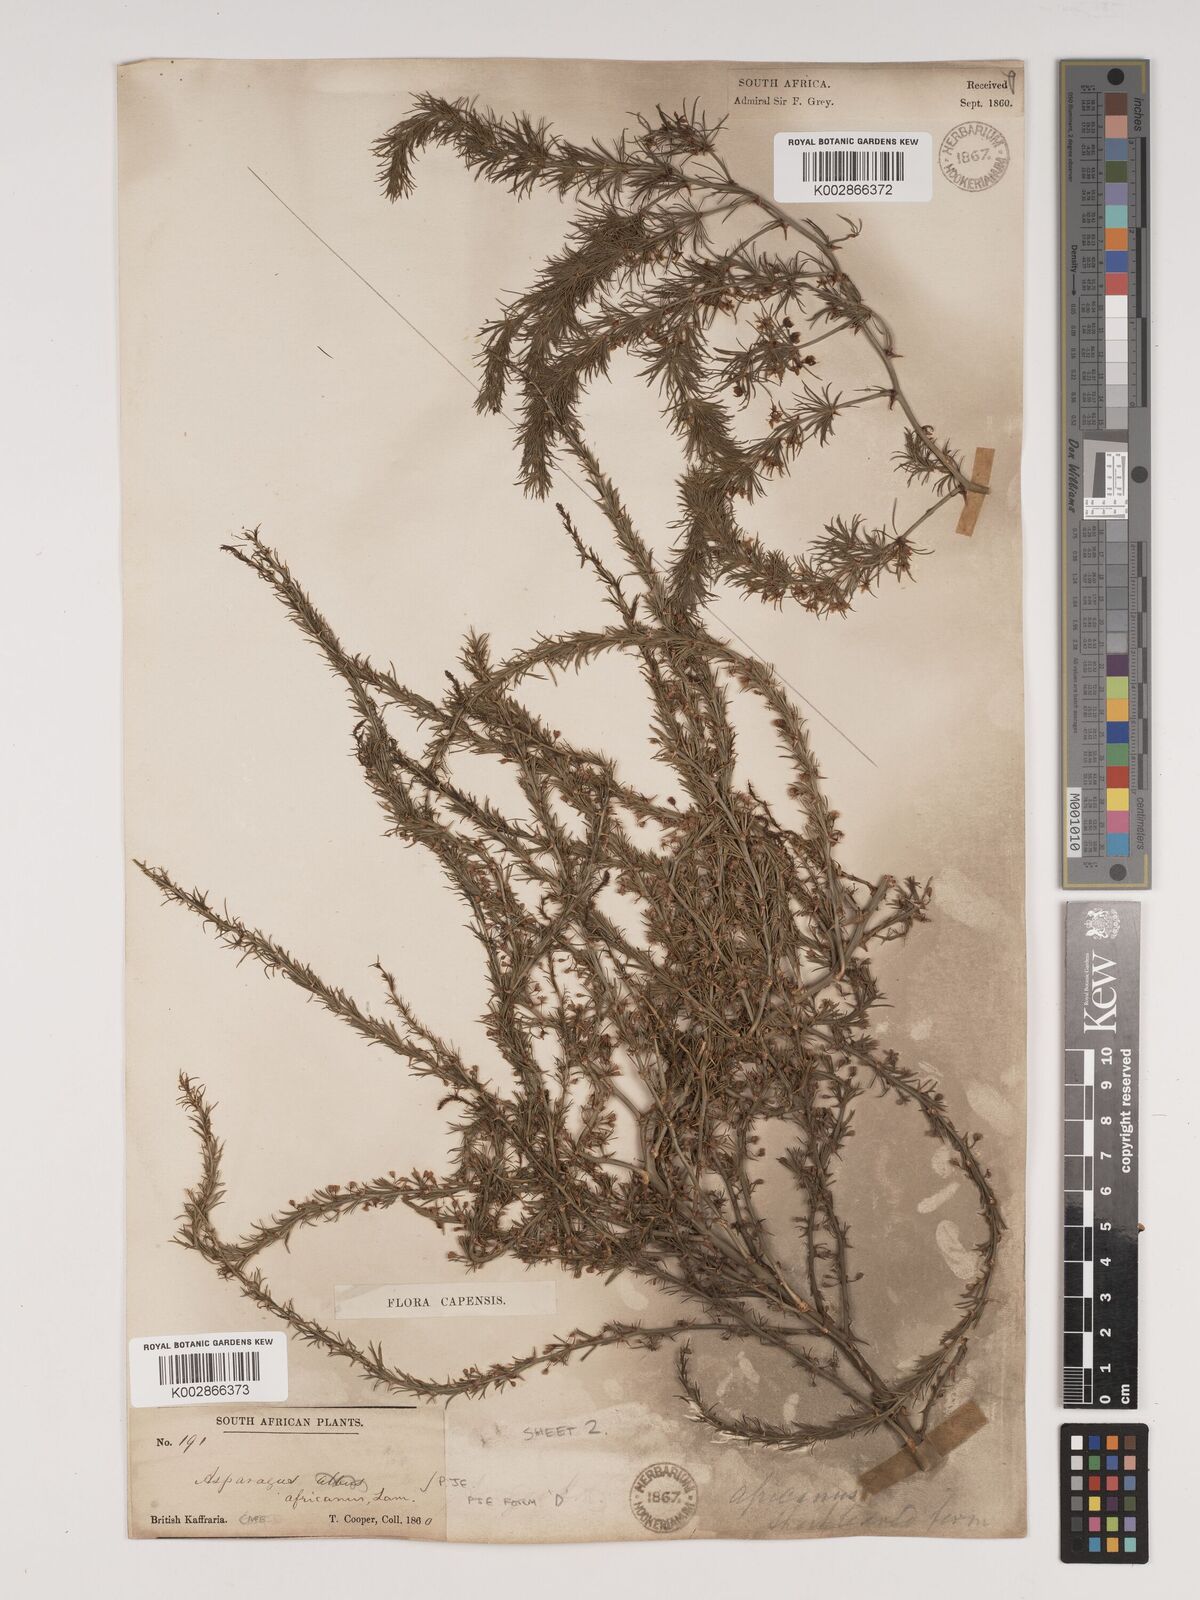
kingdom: Plantae
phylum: Tracheophyta
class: Liliopsida
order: Asparagales
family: Asparagaceae
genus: Asparagus
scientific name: Asparagus africanus
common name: Asparagus-fern
